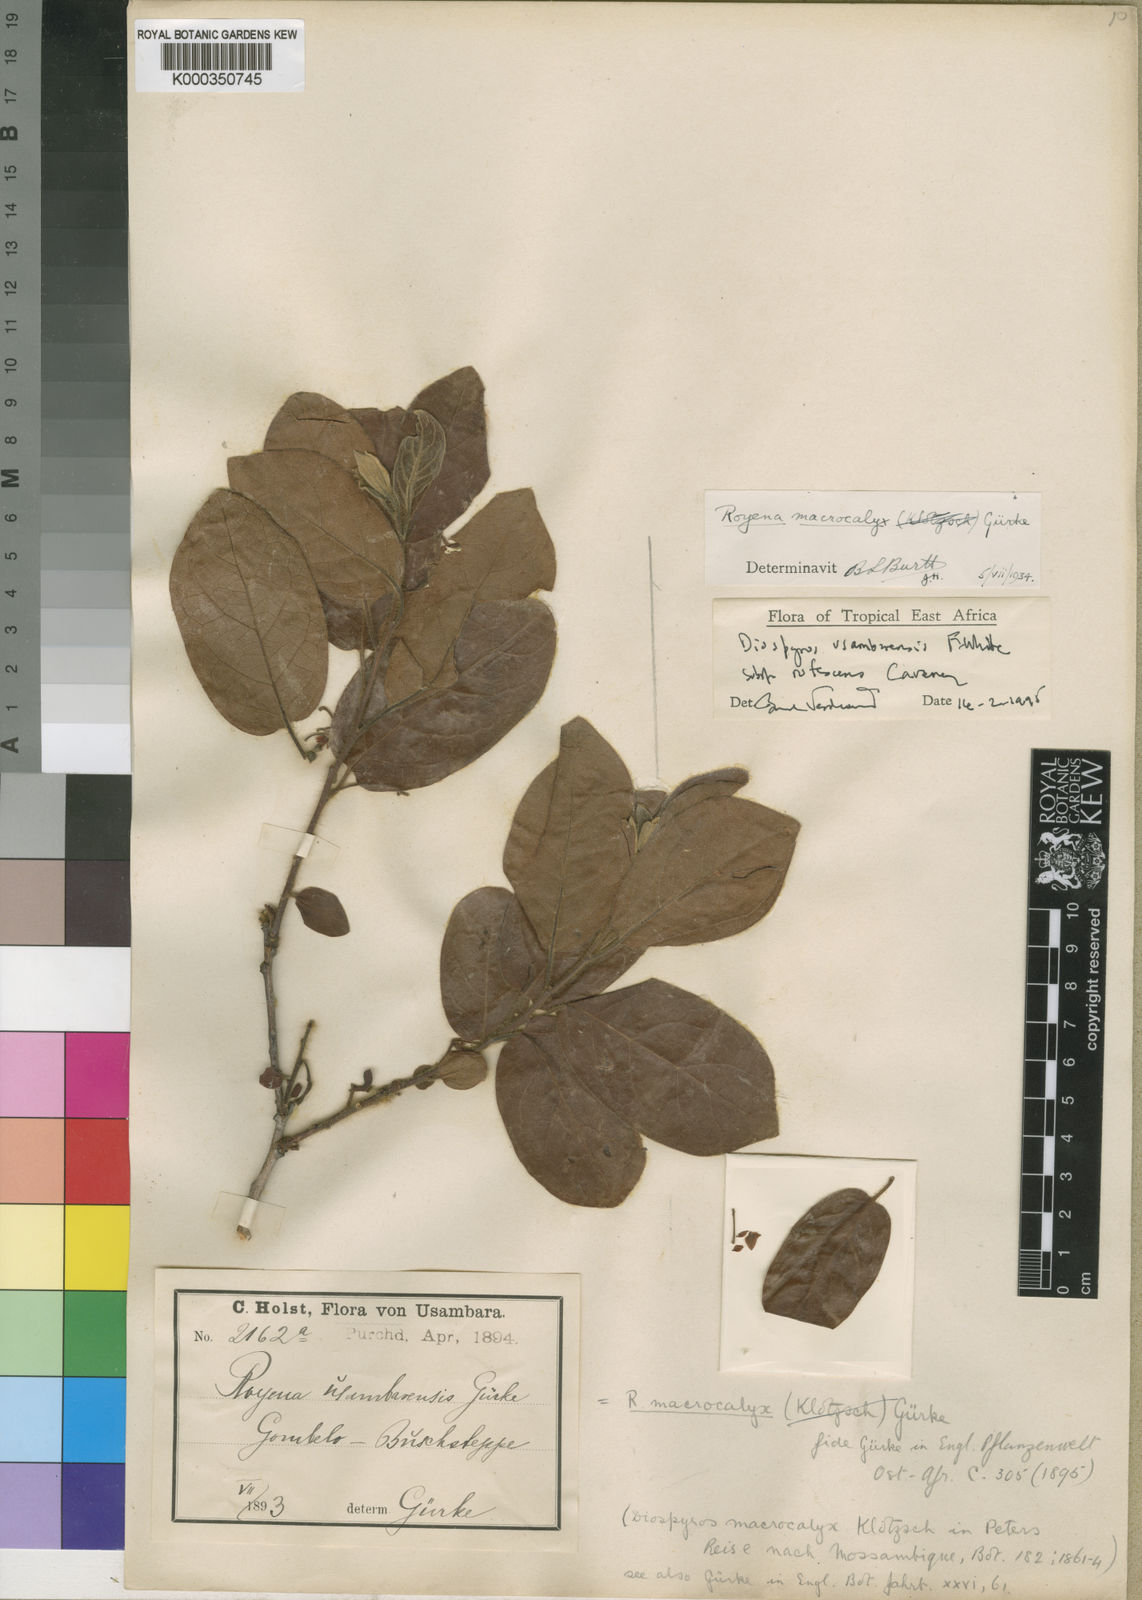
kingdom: Plantae
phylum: Tracheophyta
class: Magnoliopsida
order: Ericales
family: Ebenaceae
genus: Diospyros
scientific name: Diospyros loureiroana
